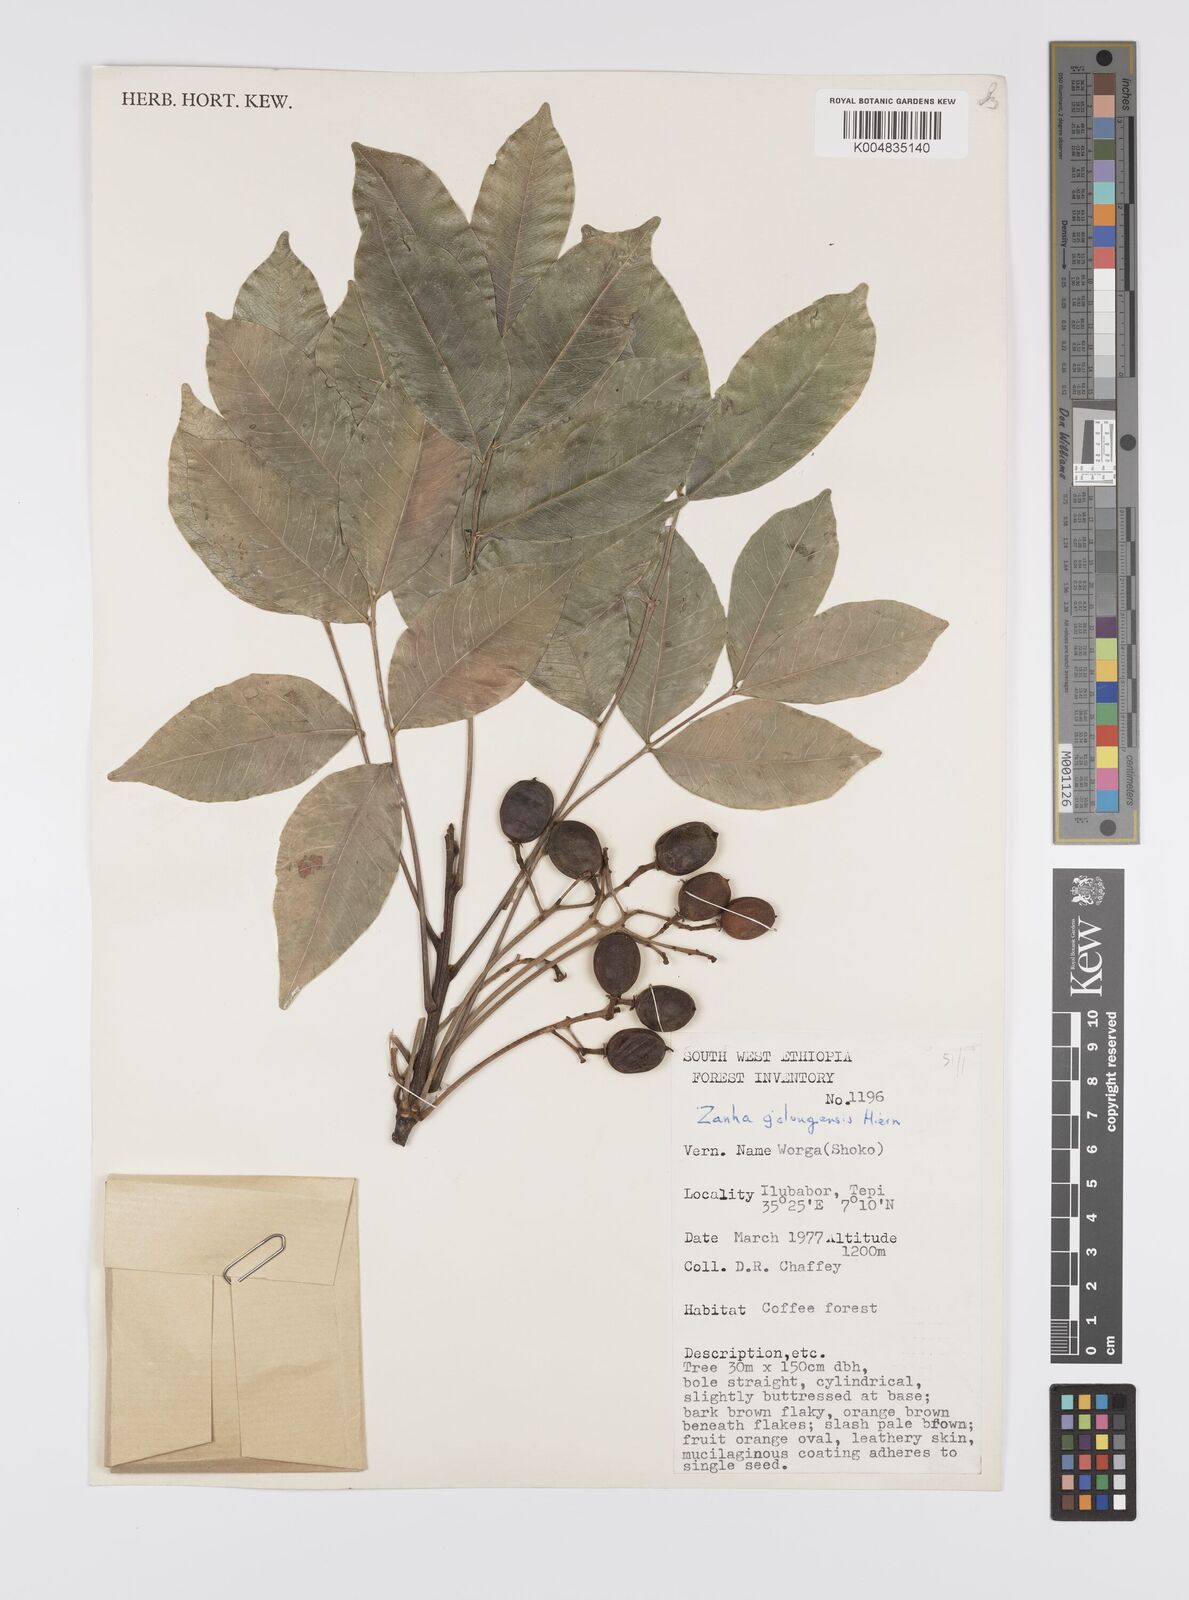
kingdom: Plantae
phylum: Tracheophyta
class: Magnoliopsida
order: Sapindales
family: Sapindaceae
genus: Zanha
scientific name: Zanha golungensis
